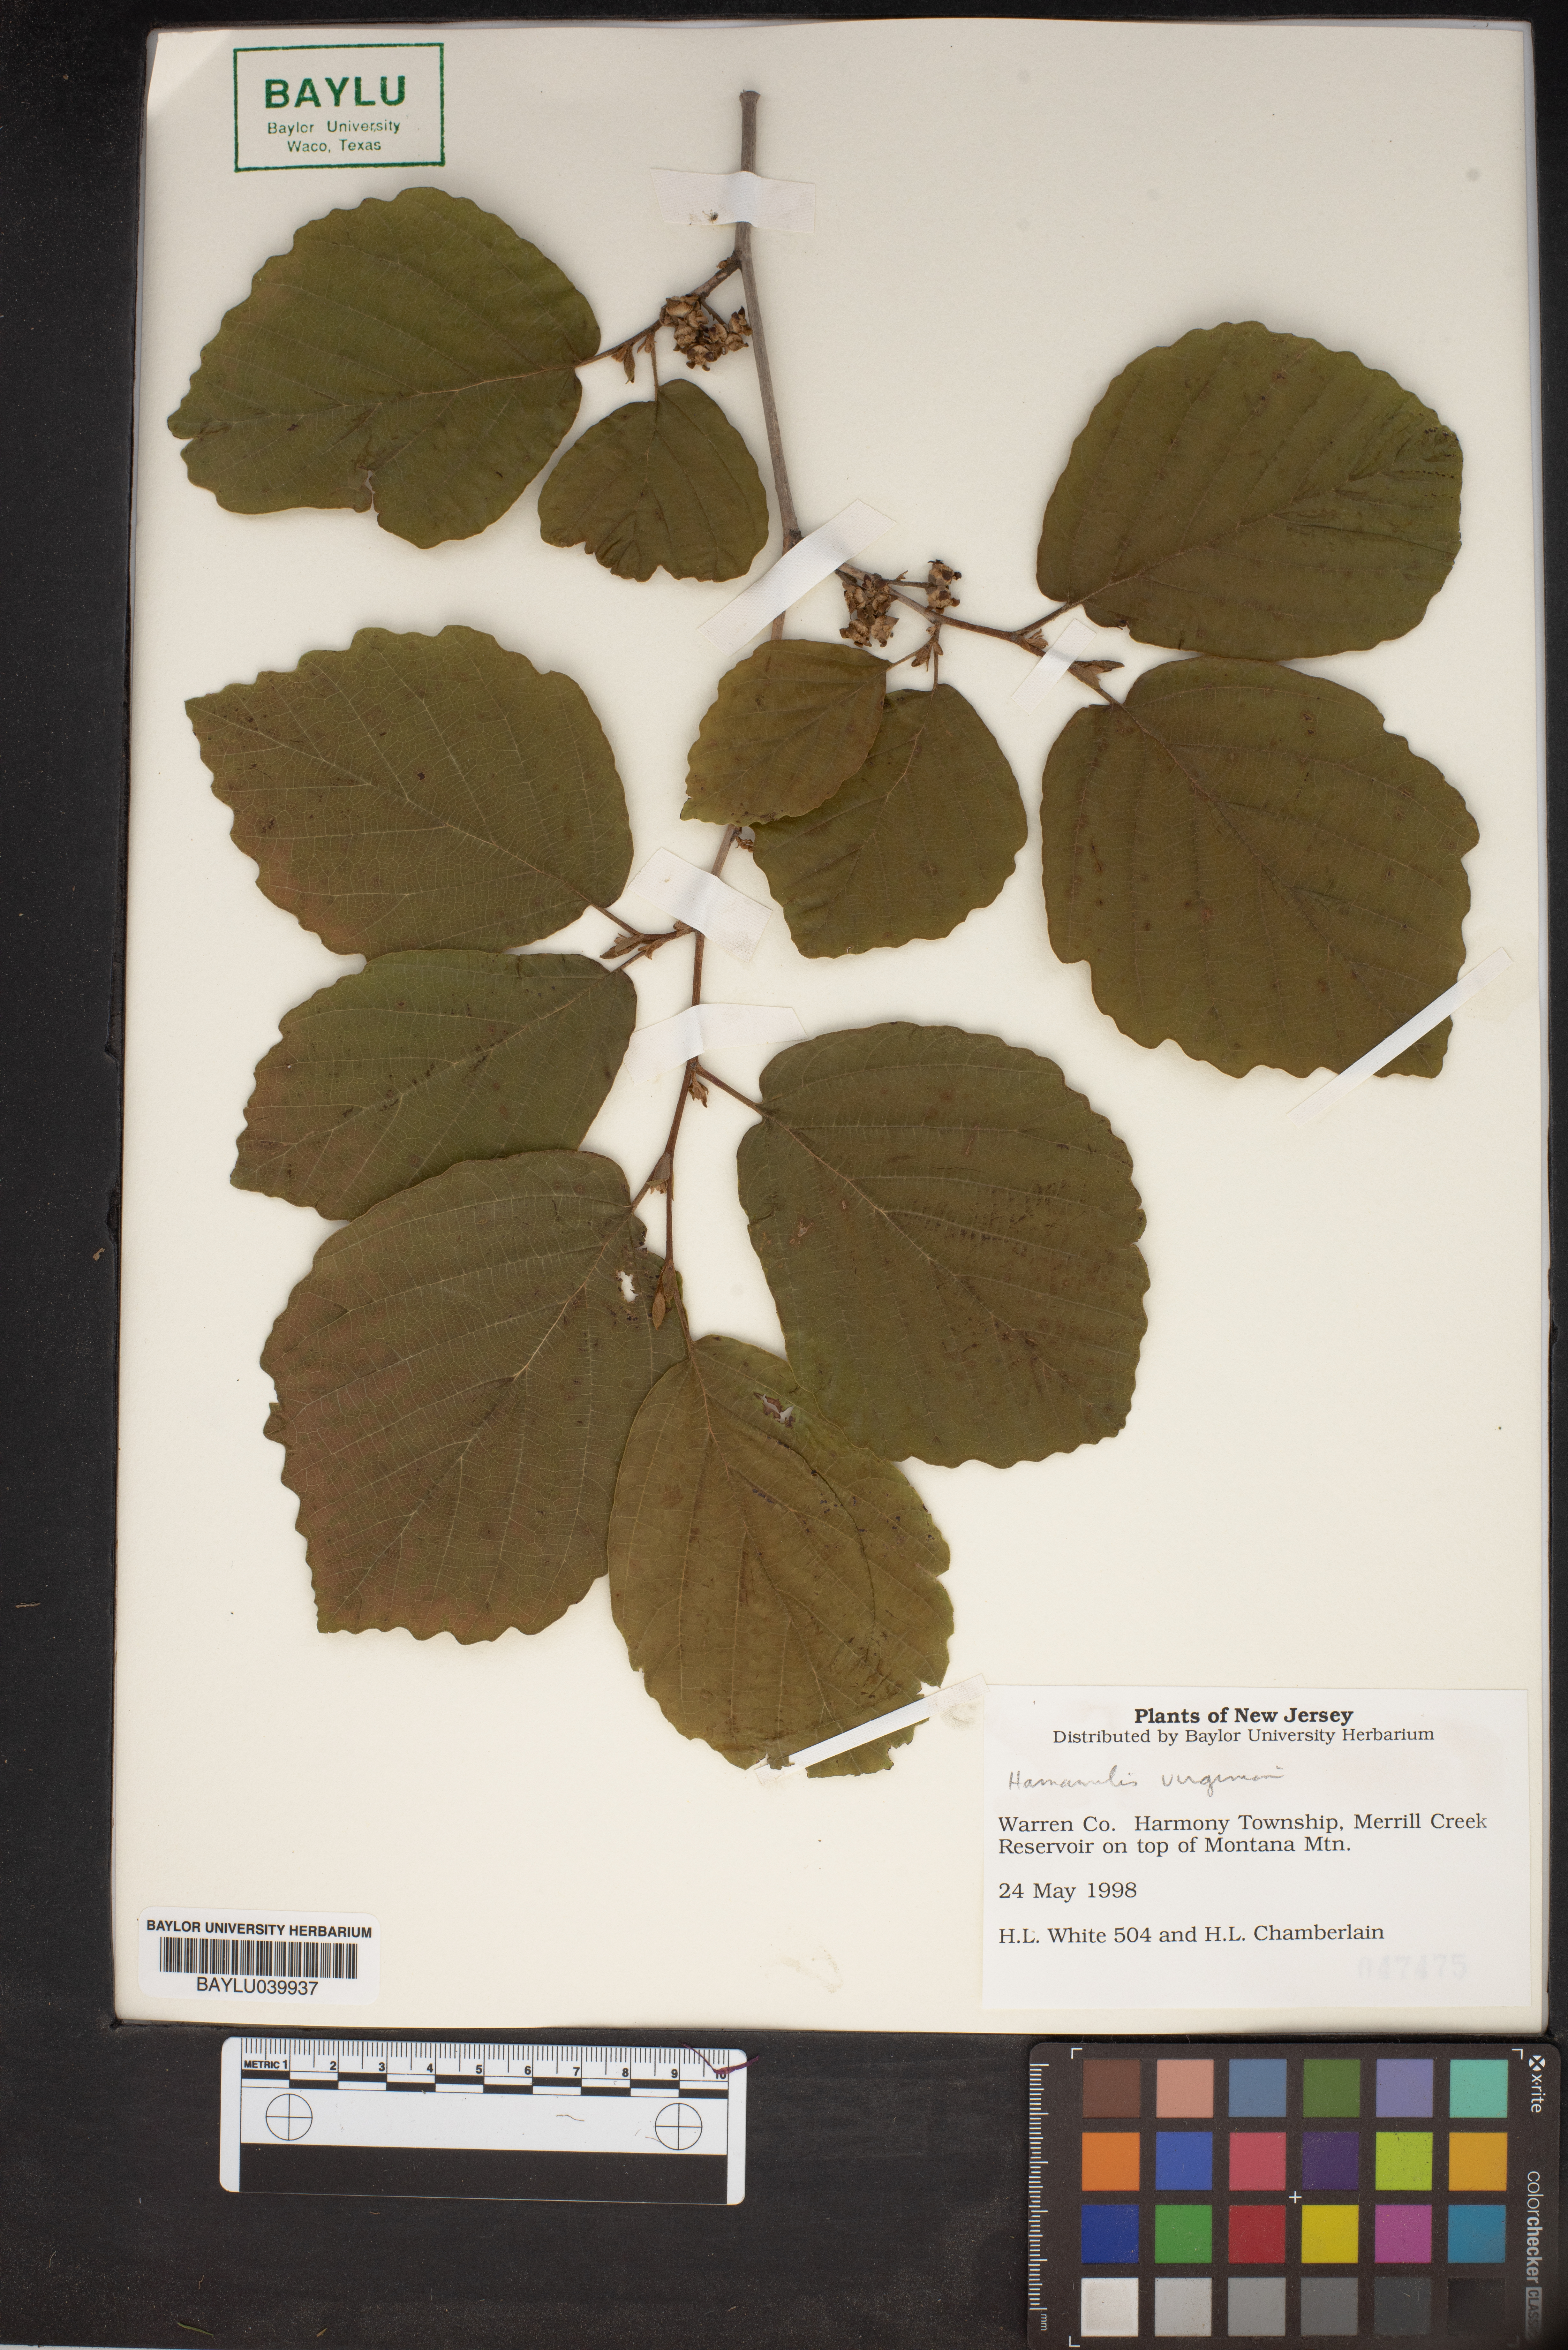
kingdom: Plantae
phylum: Tracheophyta
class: Magnoliopsida
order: Saxifragales
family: Hamamelidaceae
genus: Hamamelis
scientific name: Hamamelis virginiana
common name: Witch-hazel
